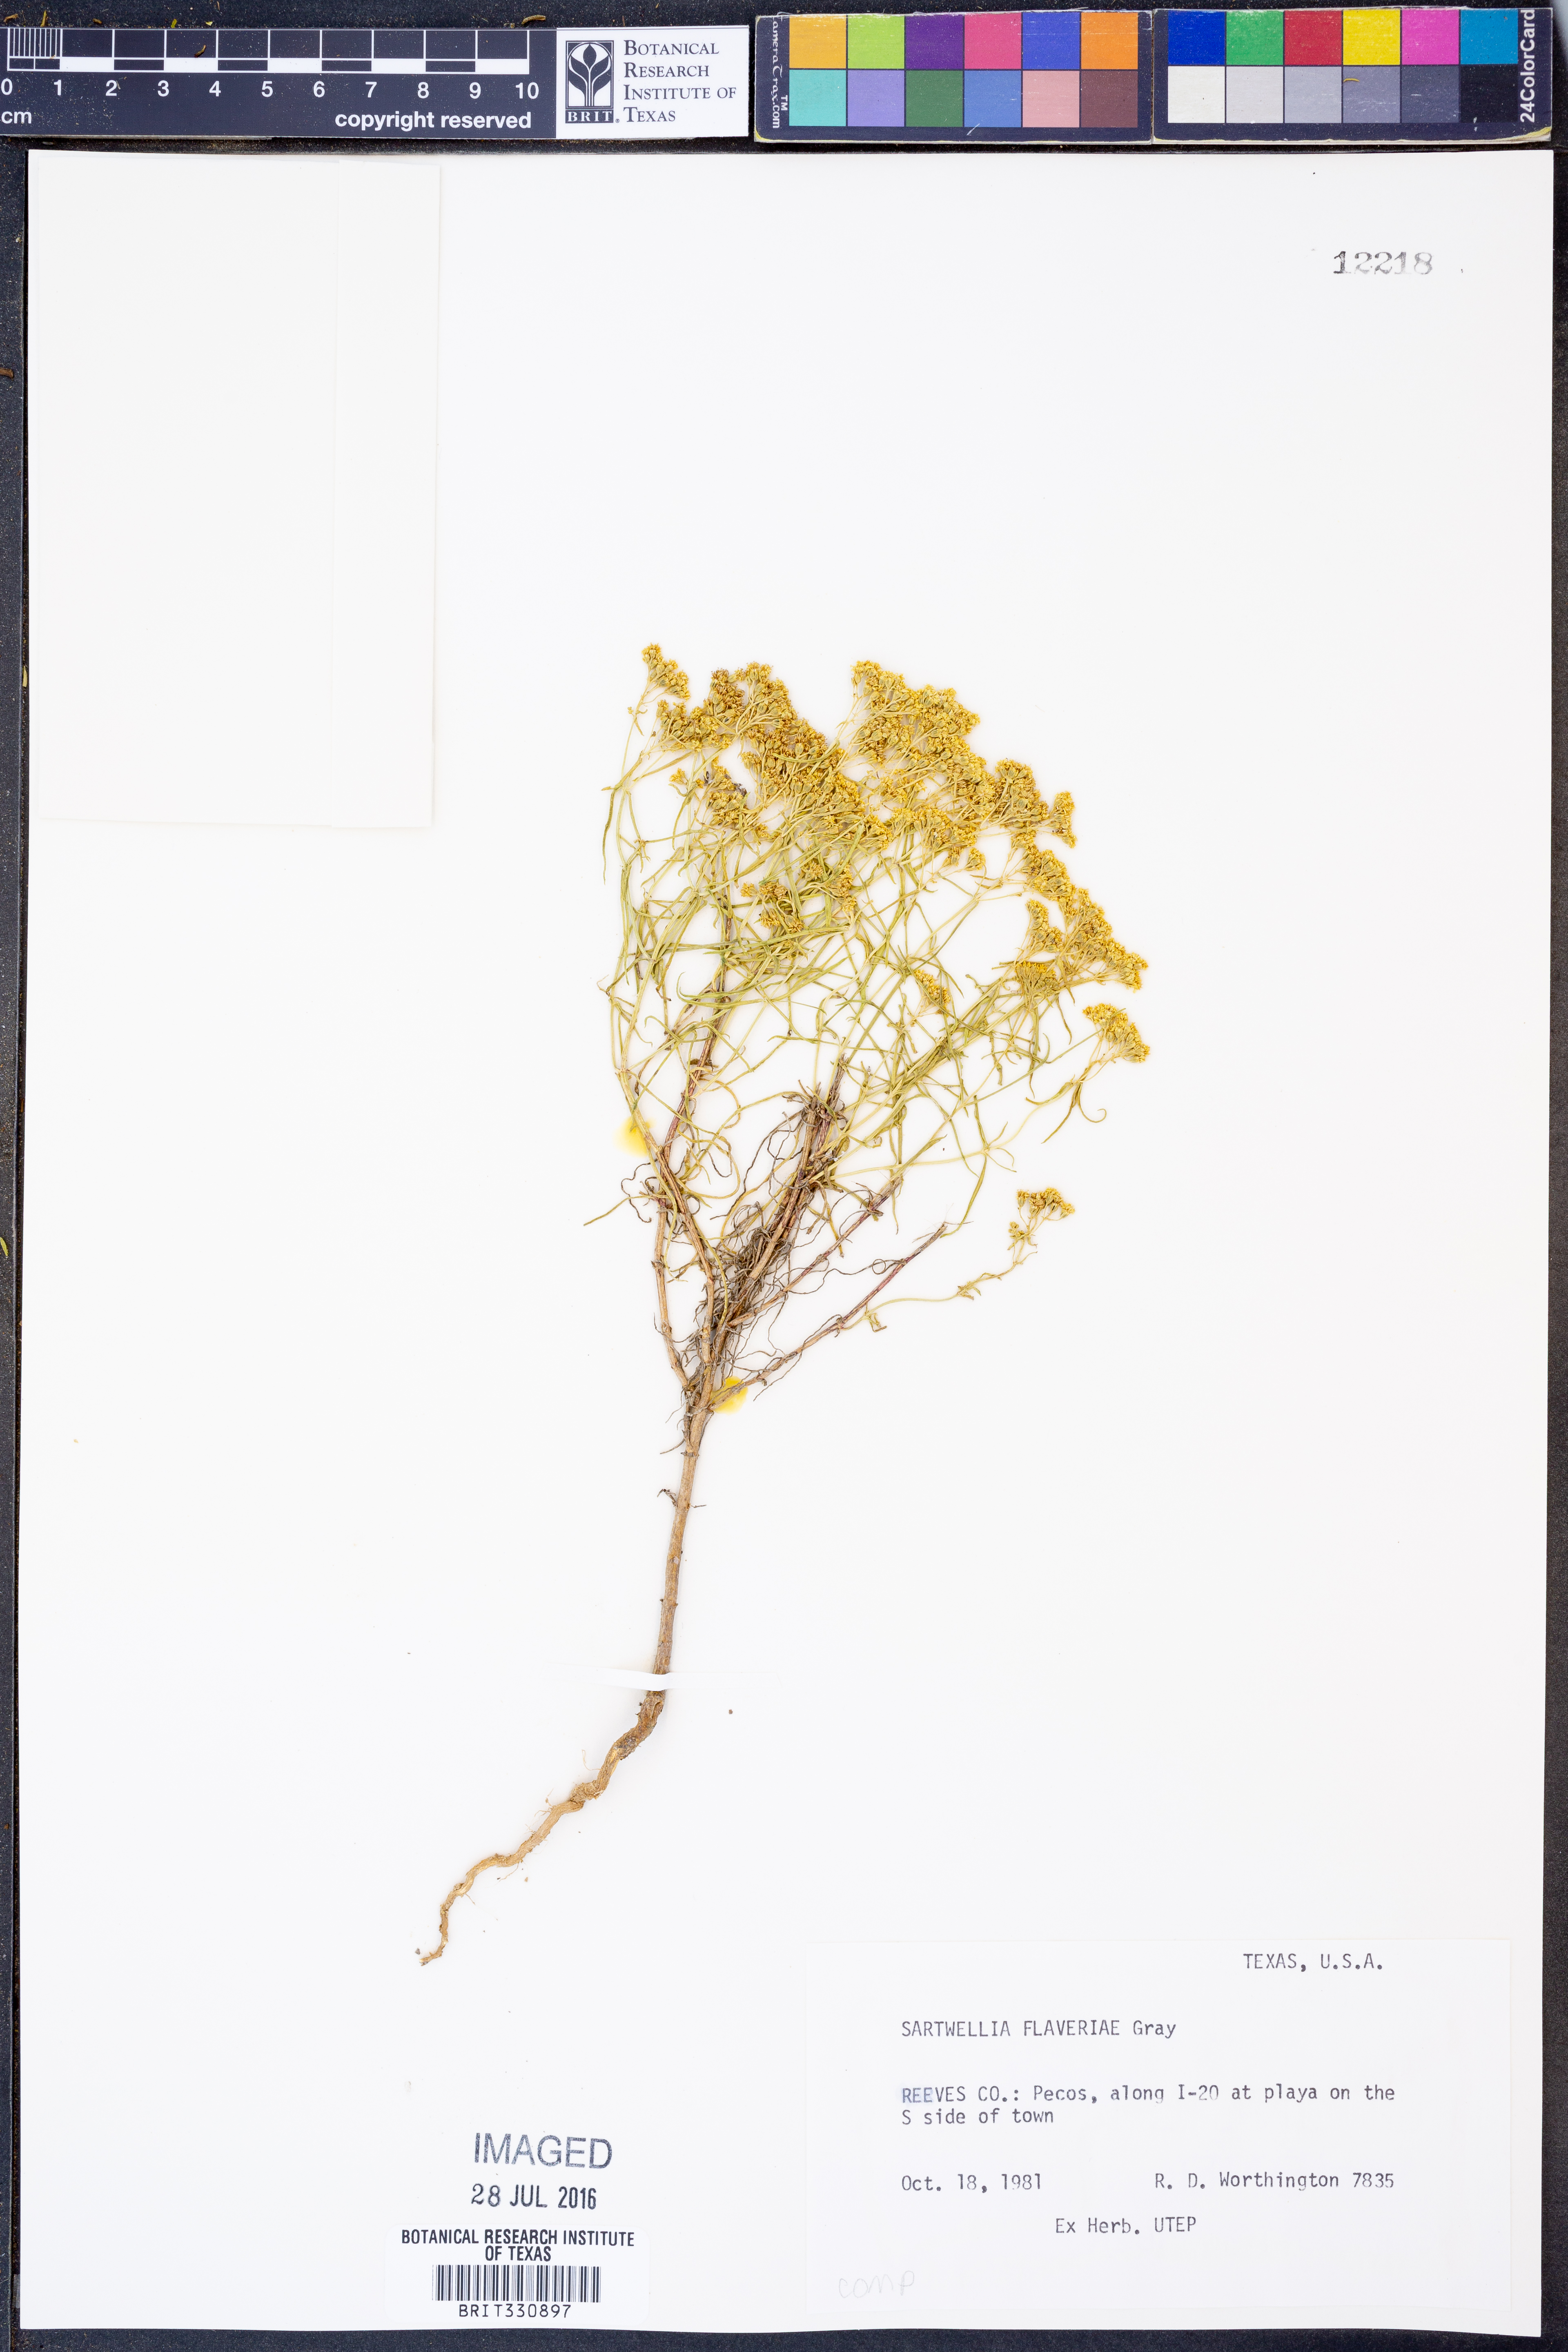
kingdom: Plantae
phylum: Tracheophyta
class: Magnoliopsida
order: Asterales
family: Asteraceae
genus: Sartwellia
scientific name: Sartwellia flaveriae
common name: Sartwellia
